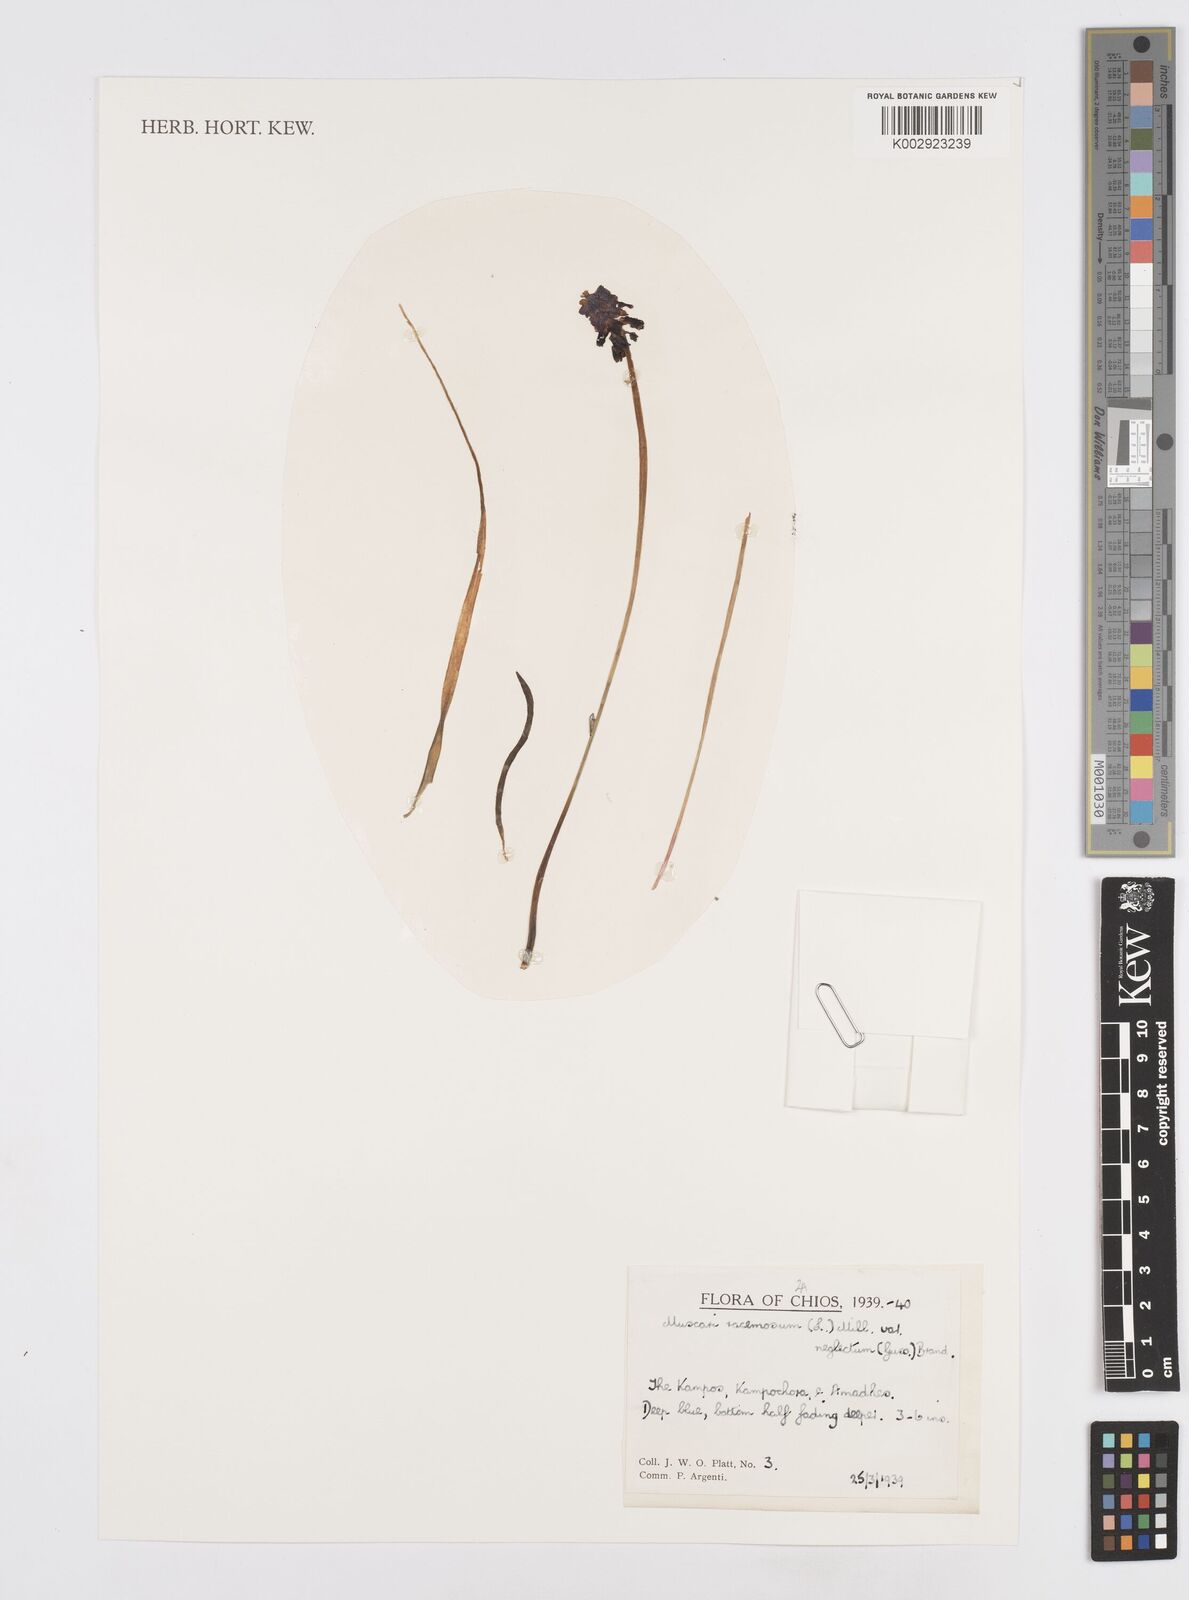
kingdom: Plantae
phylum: Tracheophyta
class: Liliopsida
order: Asparagales
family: Asparagaceae
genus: Muscari
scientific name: Muscari neglectum
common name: Grape-hyacinth
